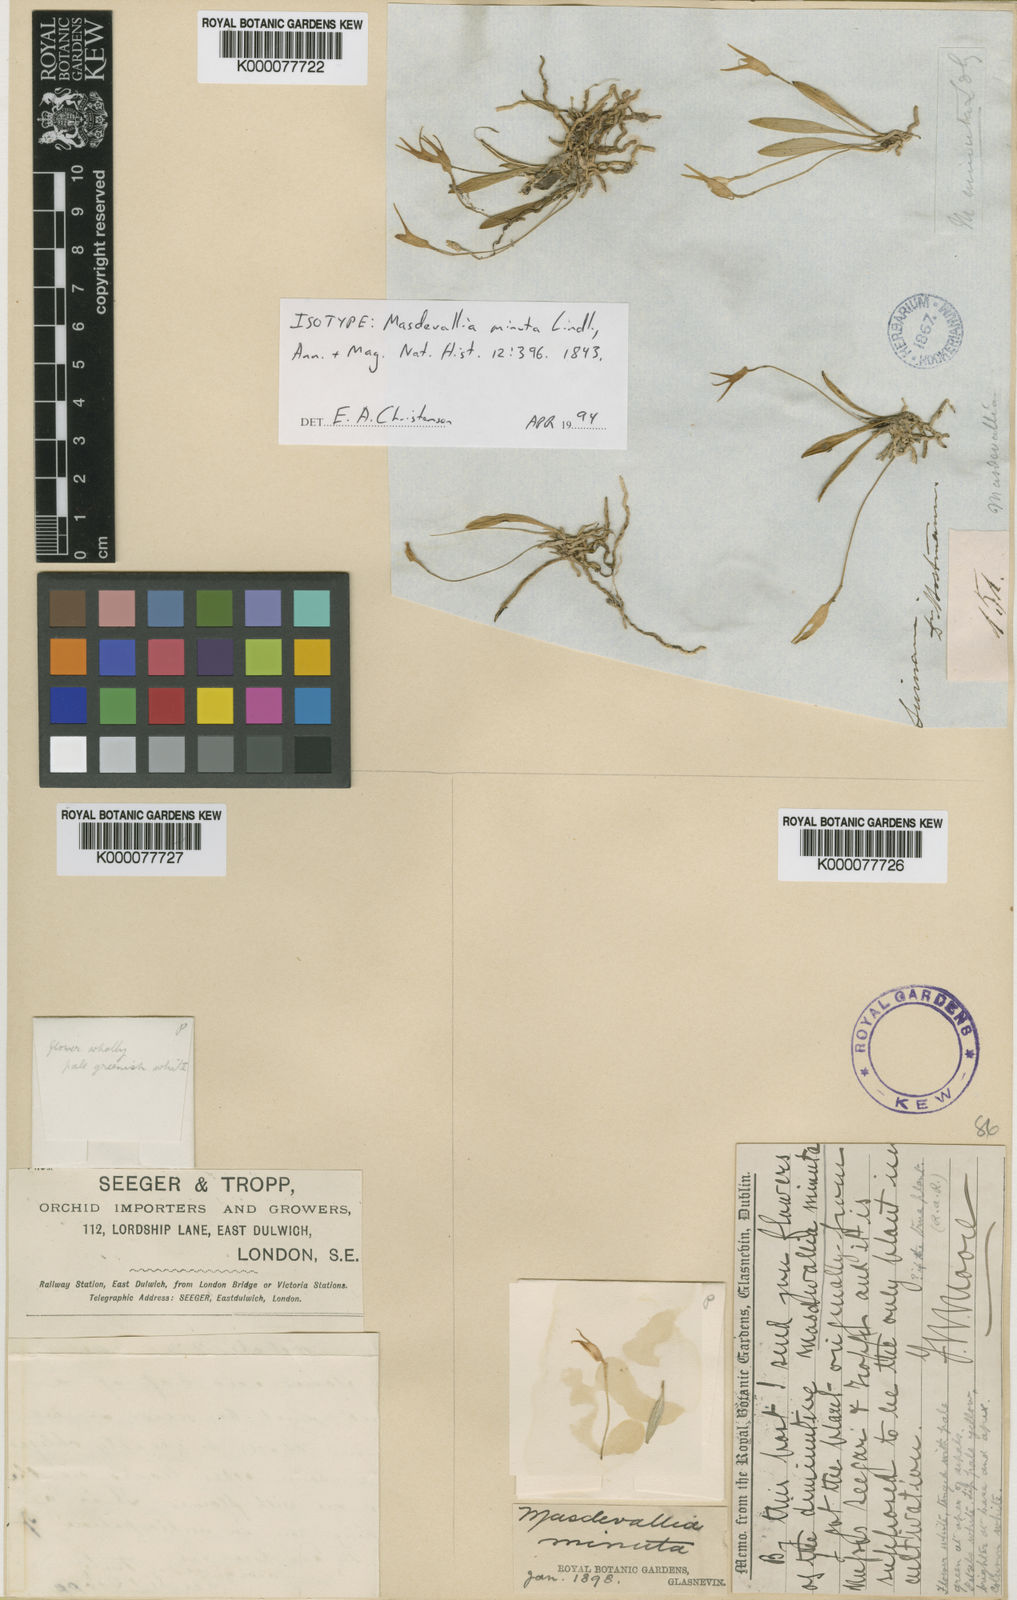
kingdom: Plantae
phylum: Tracheophyta
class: Liliopsida
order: Asparagales
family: Orchidaceae
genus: Masdevallia
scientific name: Masdevallia minuta
